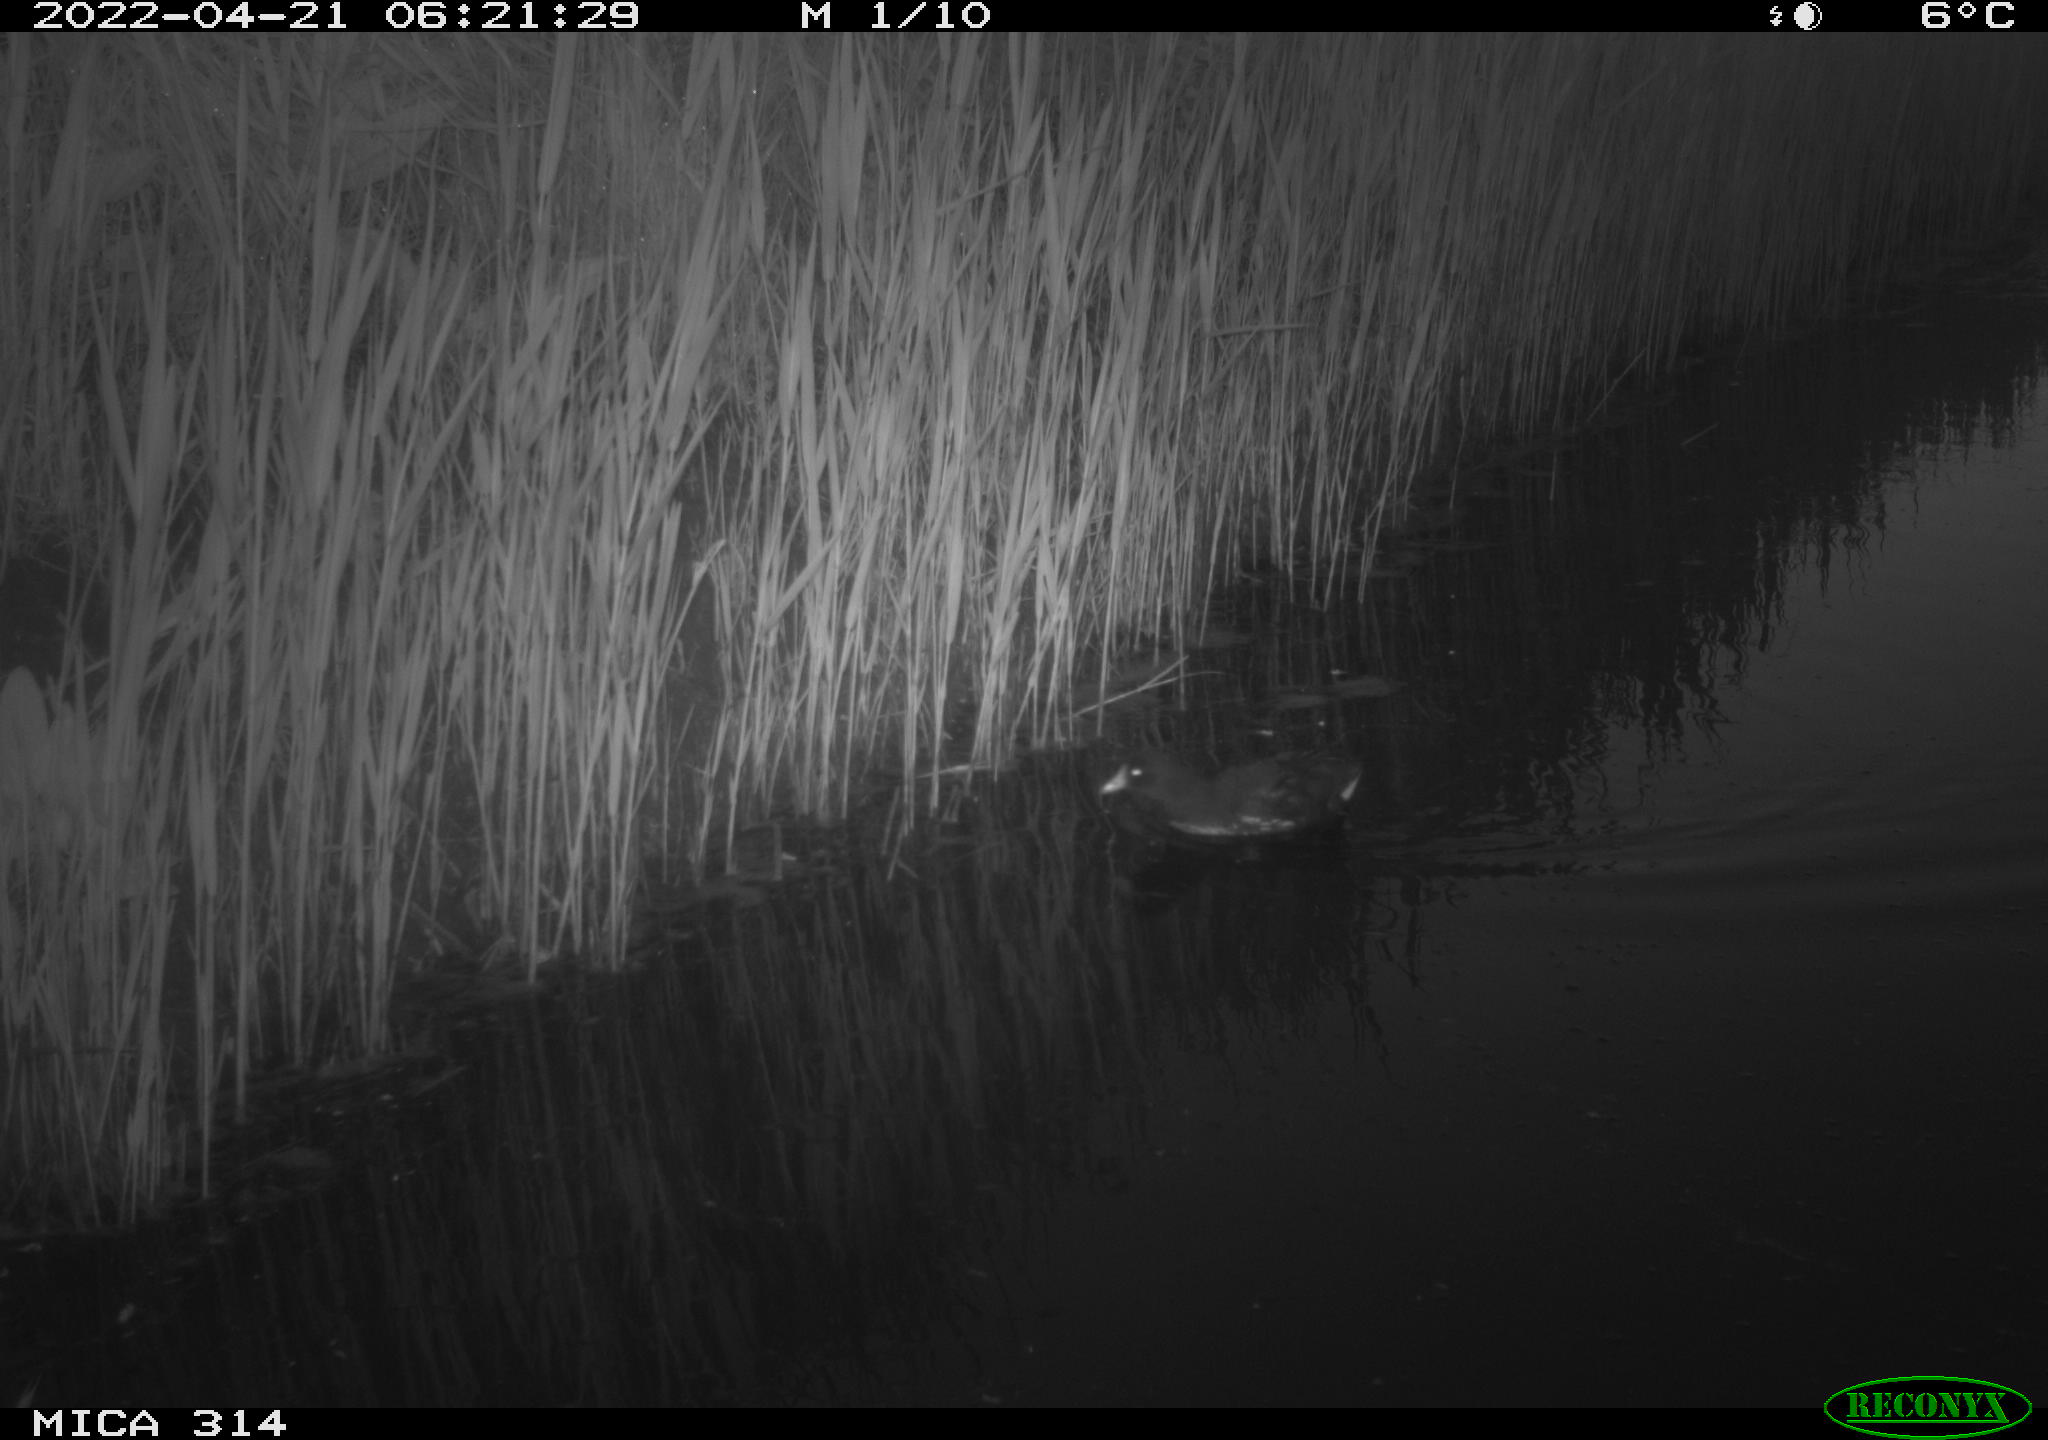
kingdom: Animalia
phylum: Chordata
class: Aves
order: Gruiformes
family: Rallidae
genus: Gallinula
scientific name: Gallinula chloropus
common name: Common moorhen
